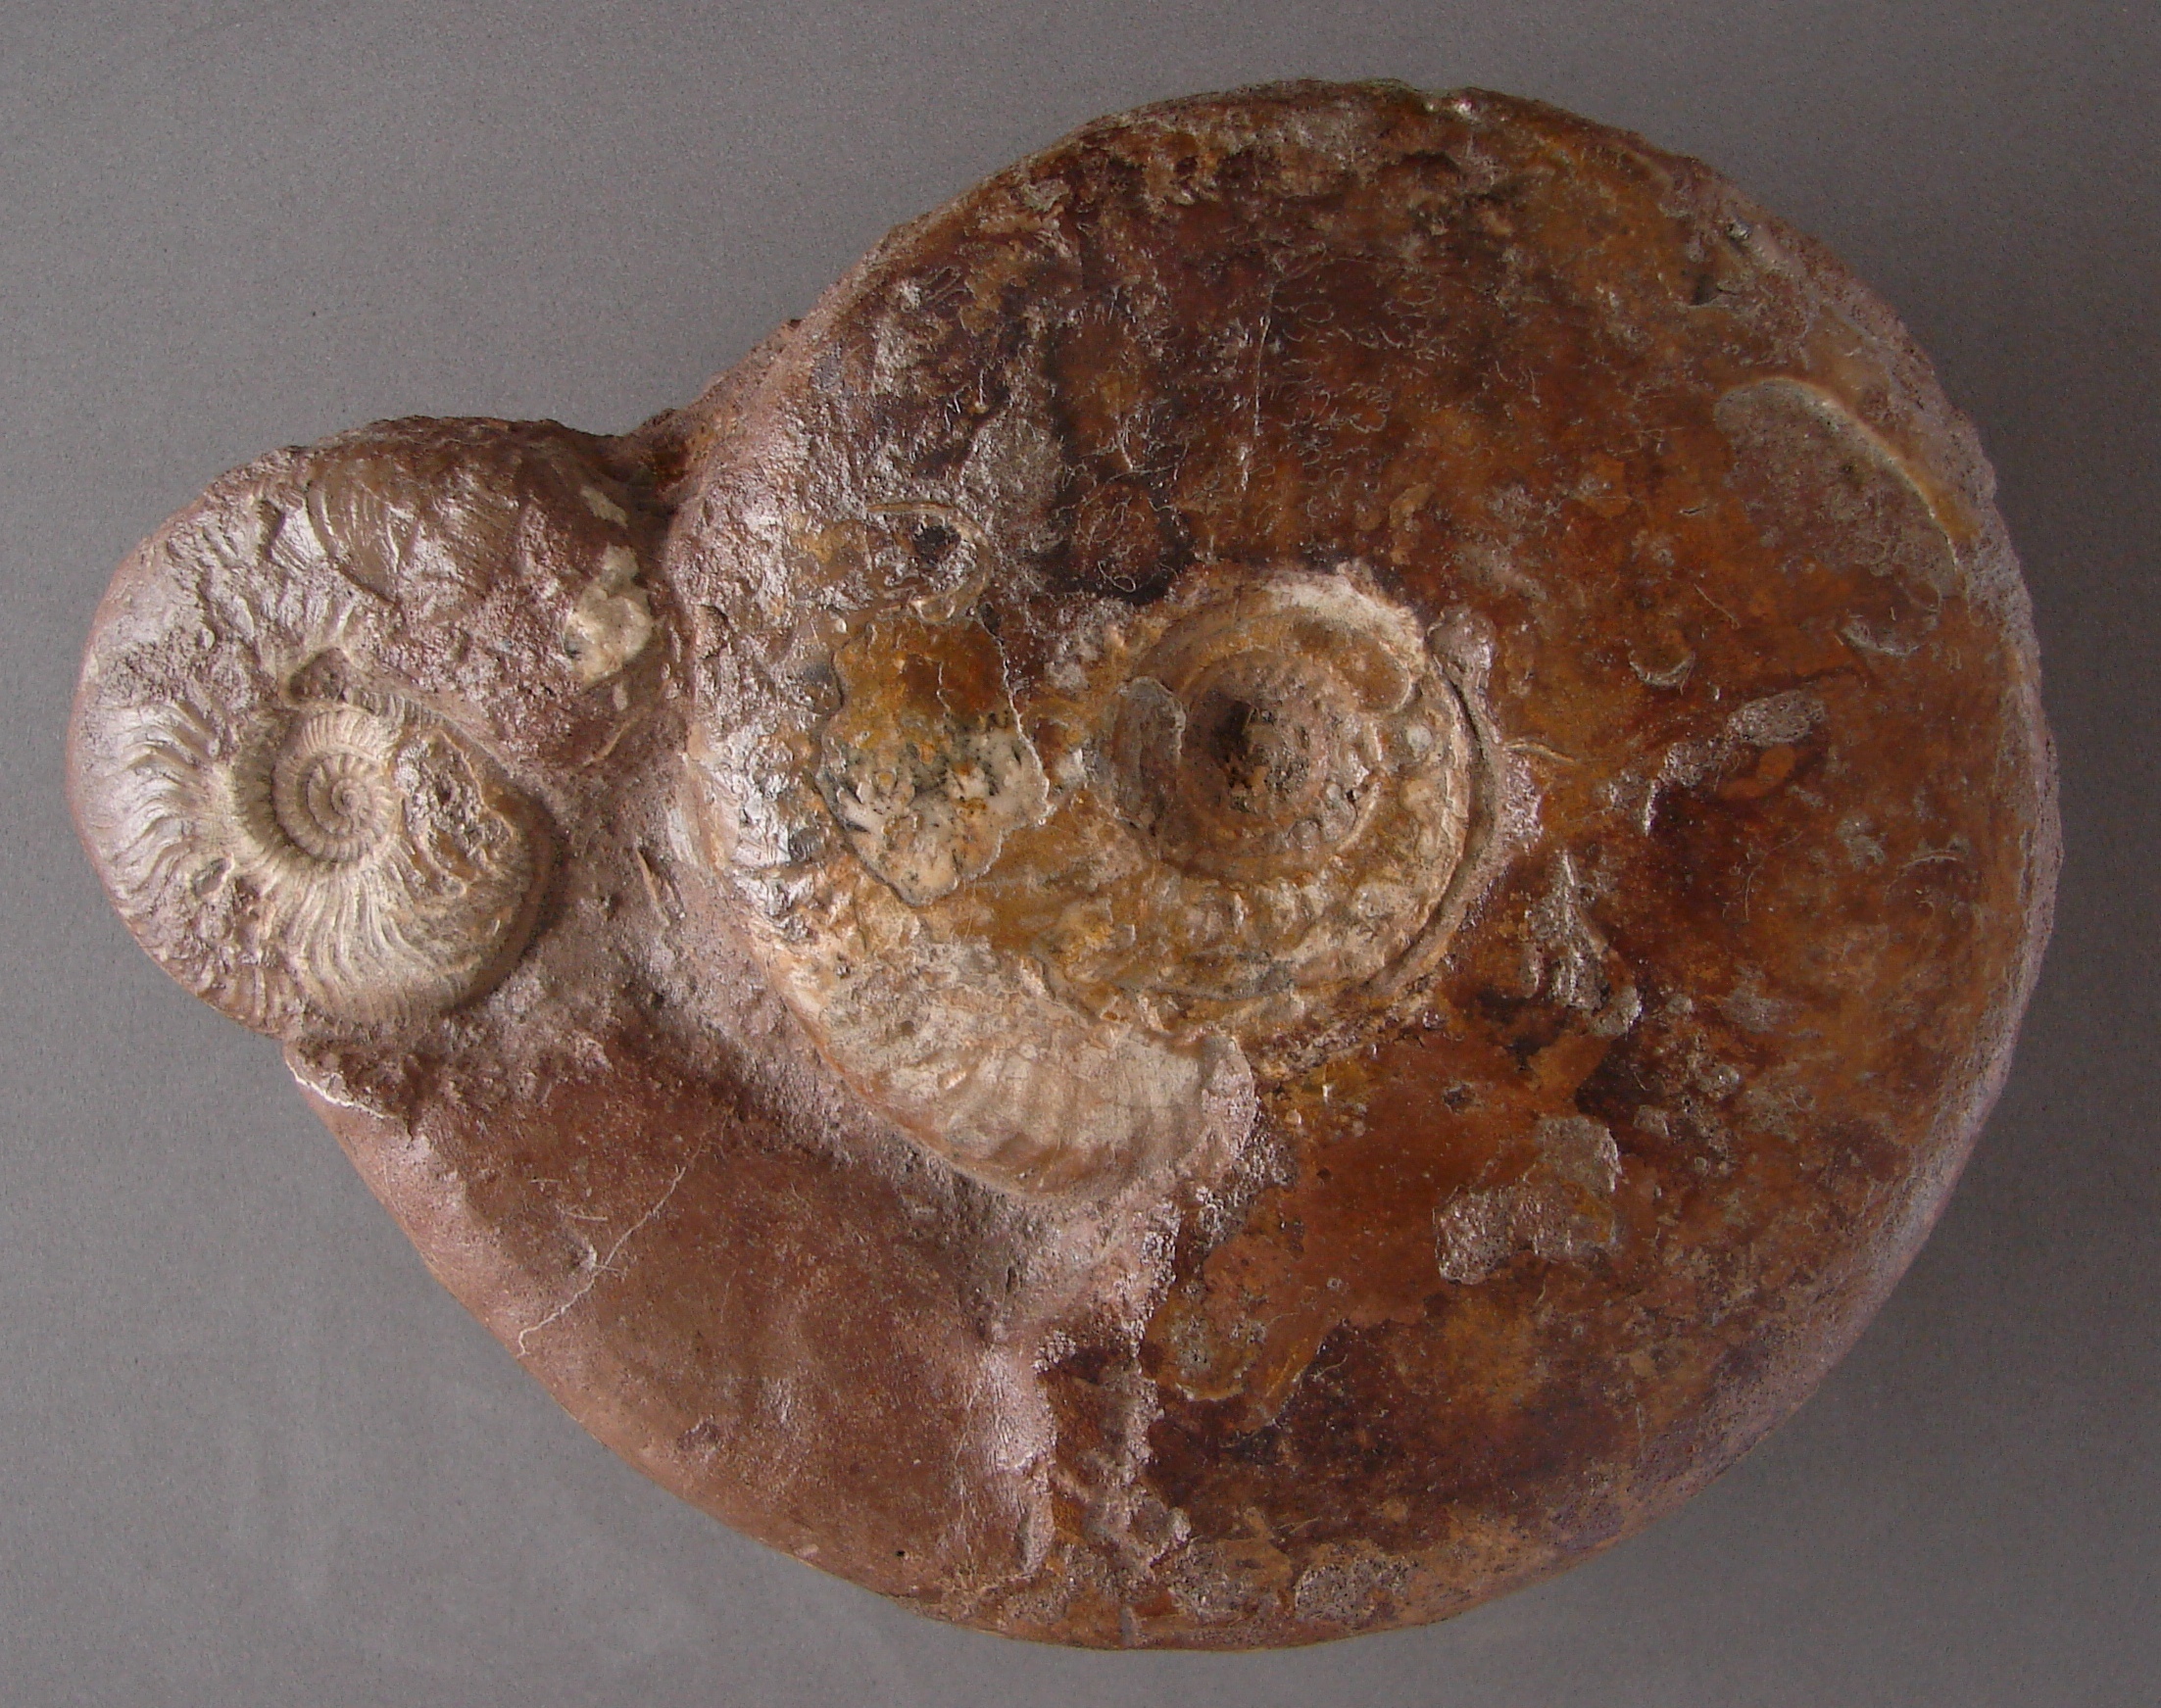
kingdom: Animalia
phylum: Mollusca
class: Cephalopoda
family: Graphoceratidae
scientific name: Graphoceratidae
